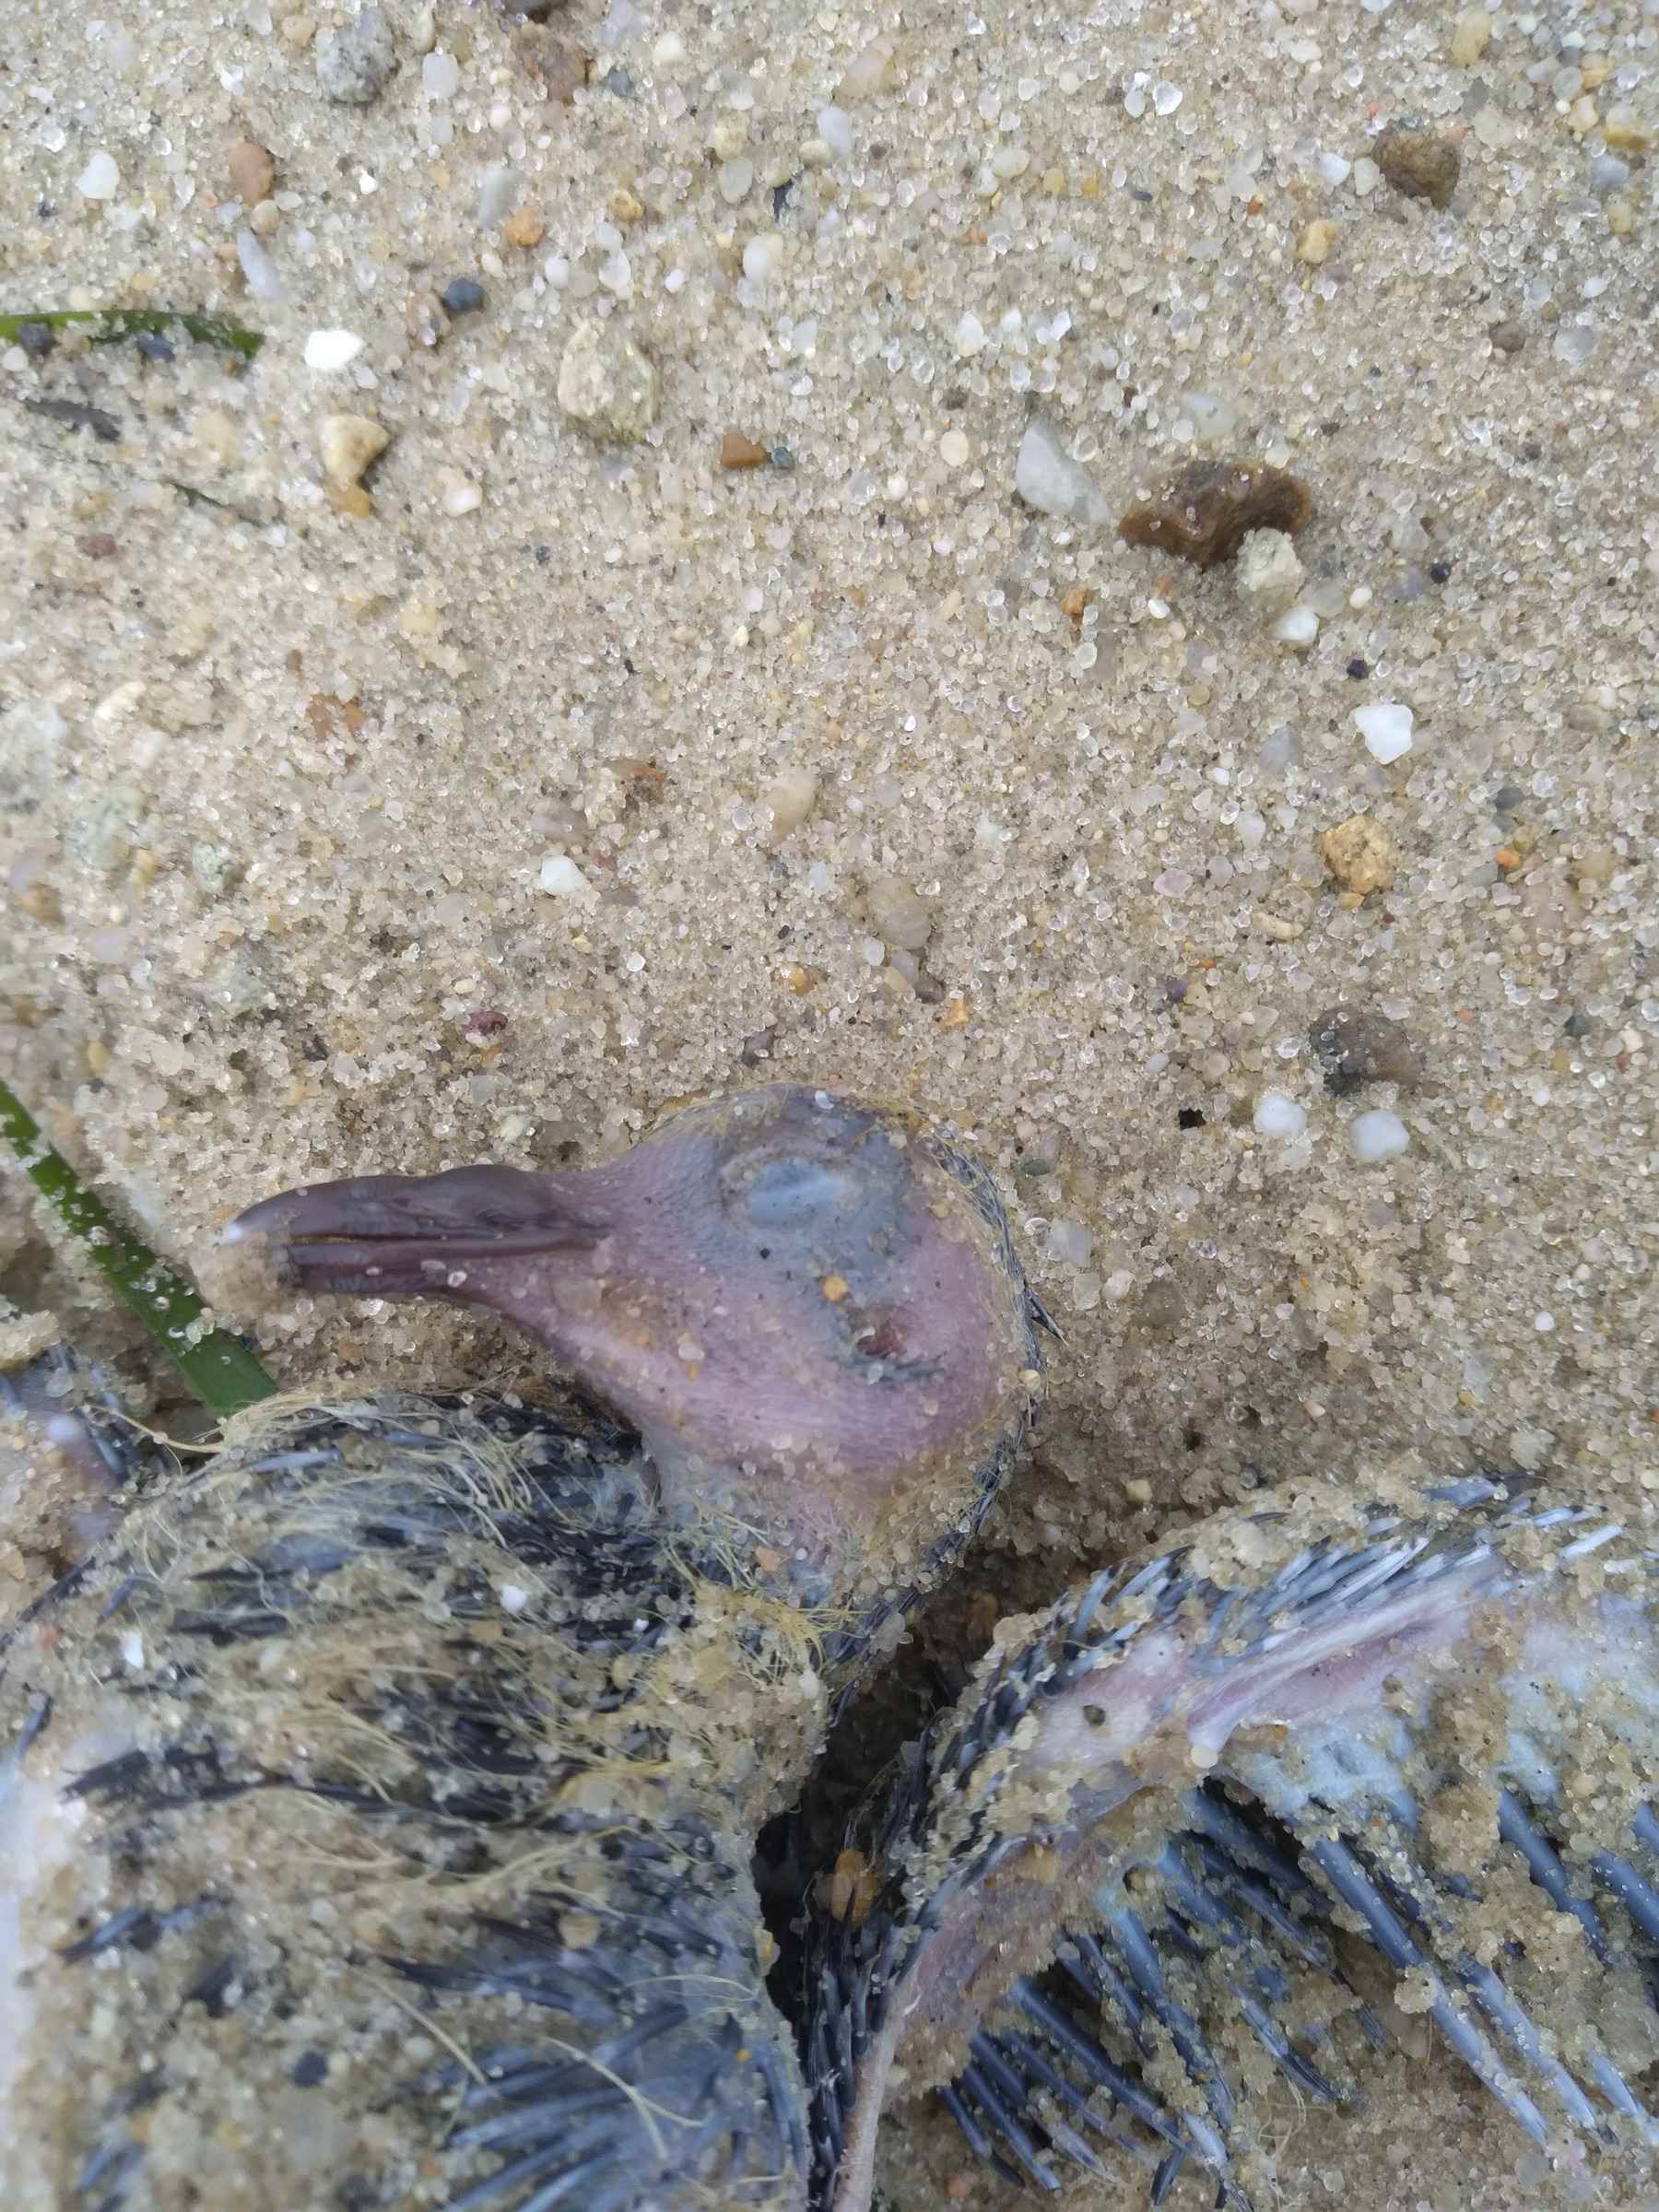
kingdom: Animalia
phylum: Chordata
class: Aves
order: Columbiformes
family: Columbidae
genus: Zenaida
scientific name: Zenaida macroura
